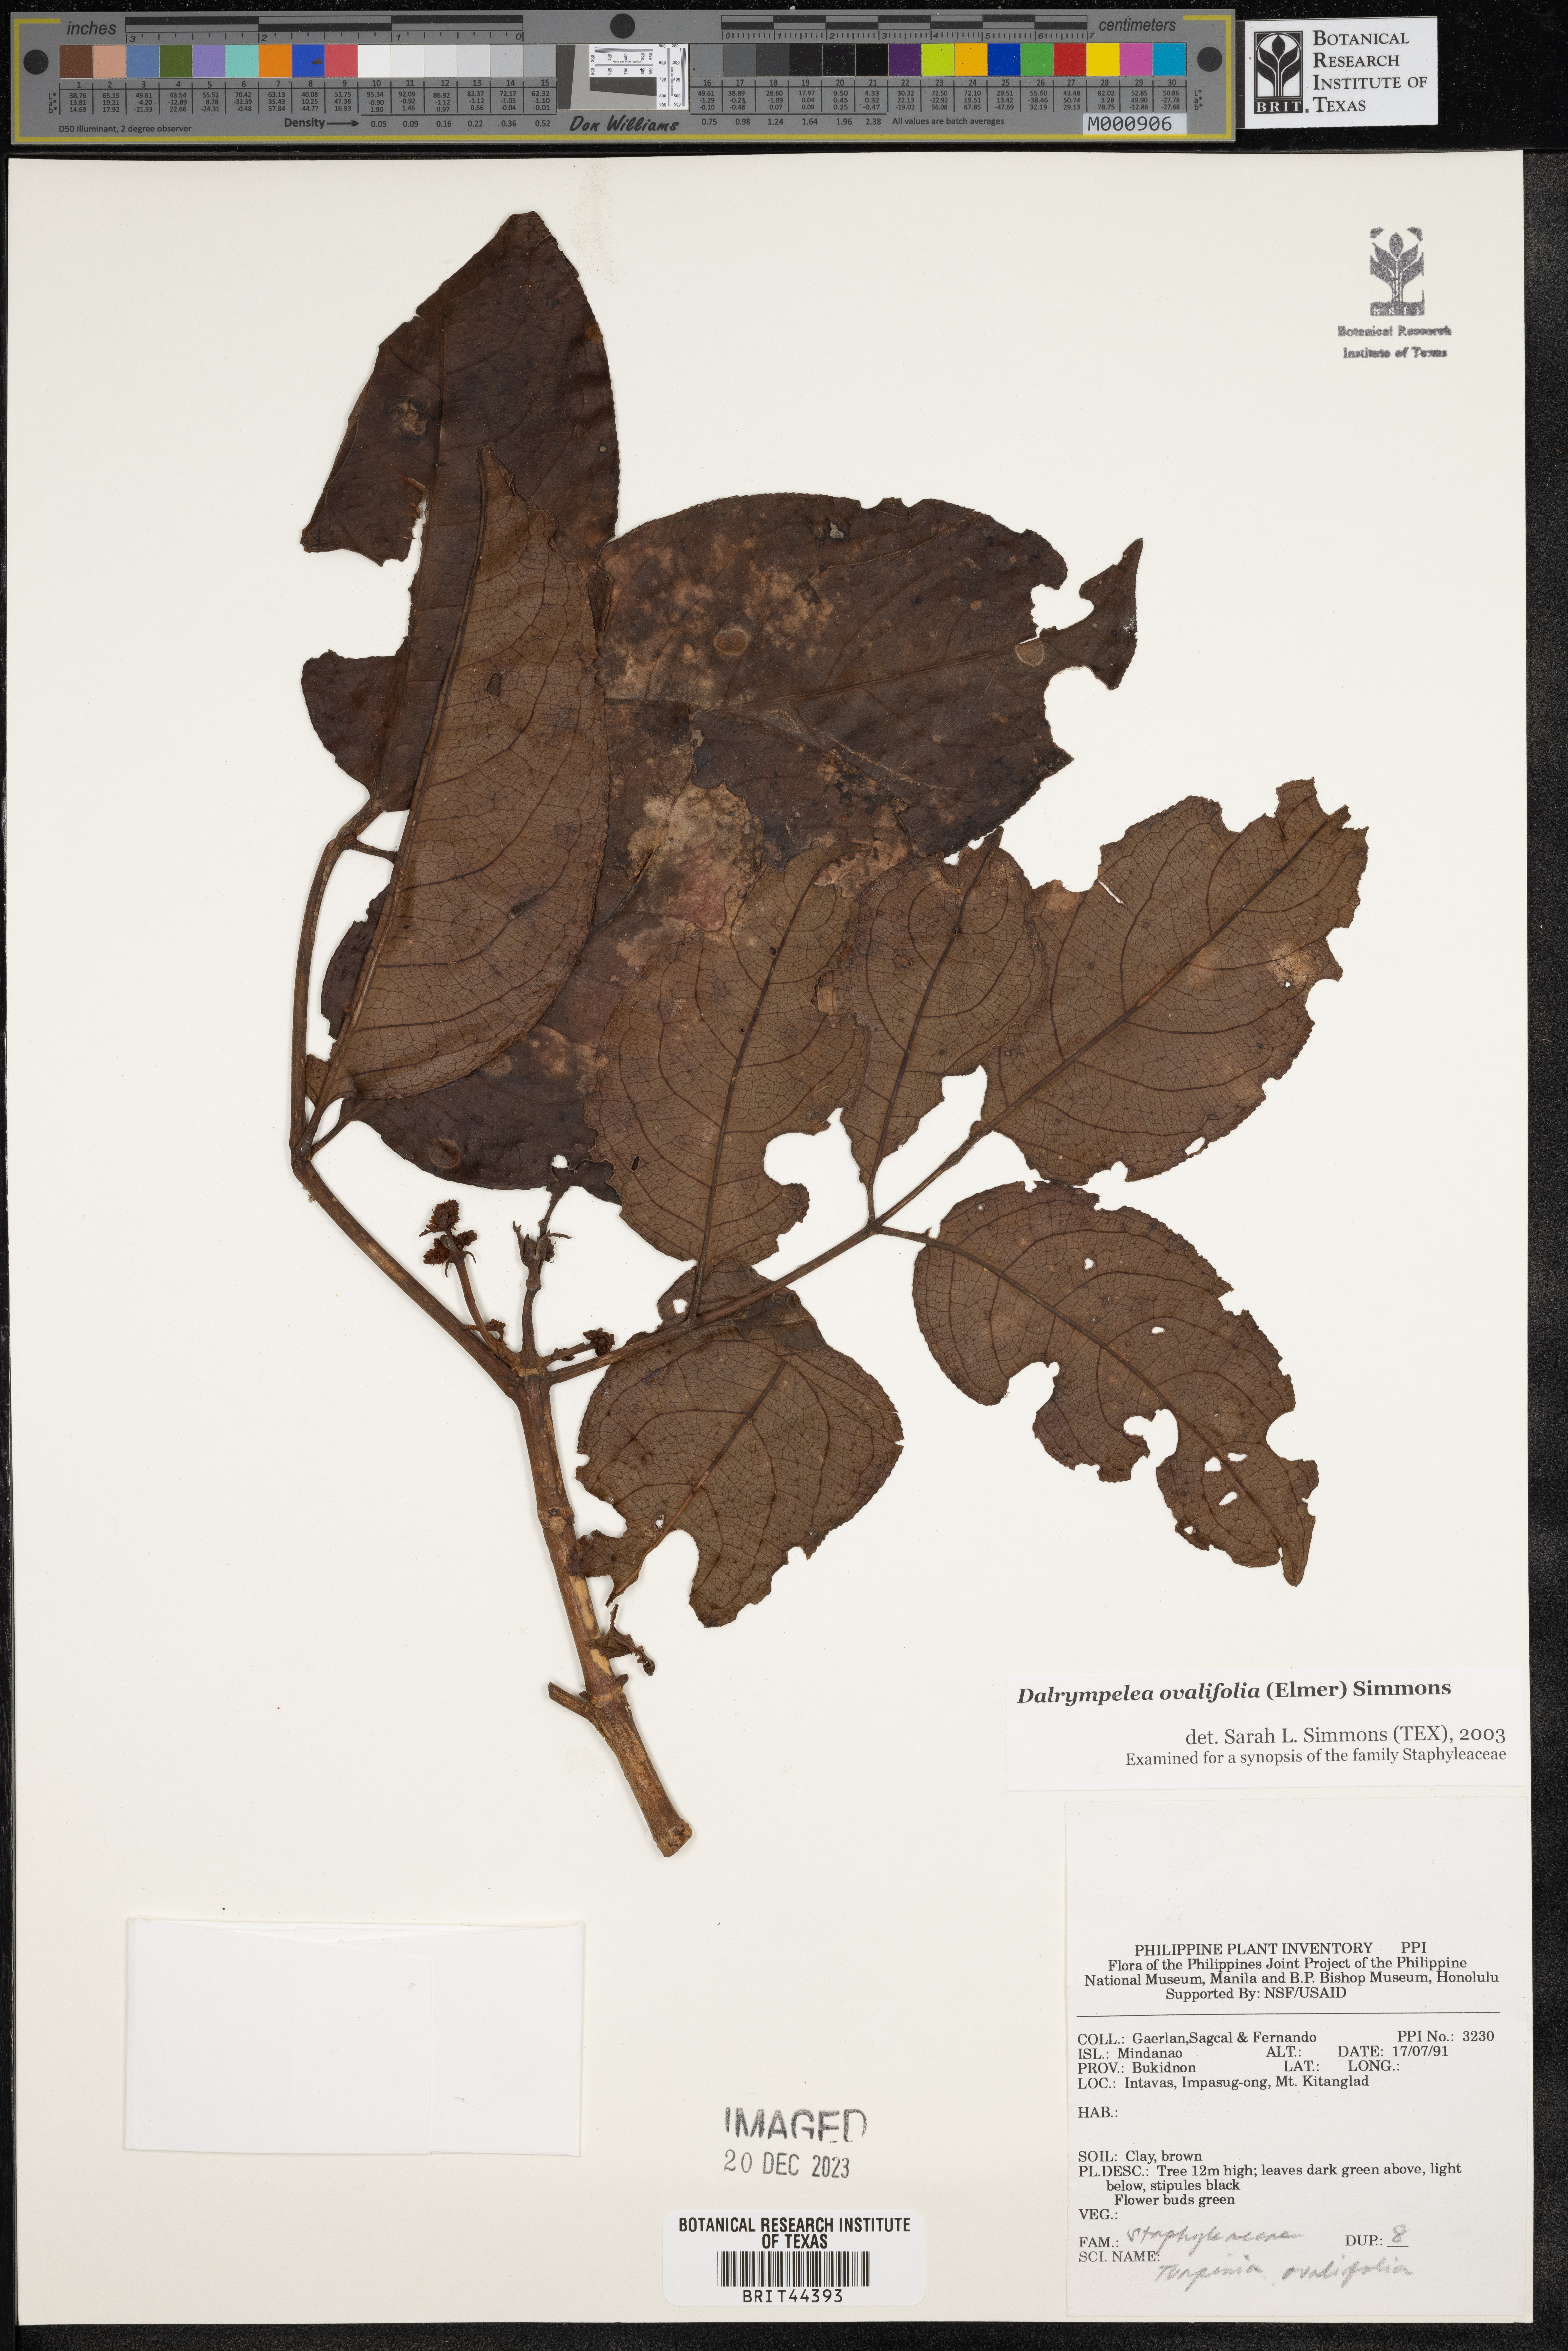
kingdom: Plantae
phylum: Tracheophyta
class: Magnoliopsida
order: Crossosomatales
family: Staphyleaceae
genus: Dalrympelea
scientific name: Dalrympelea
